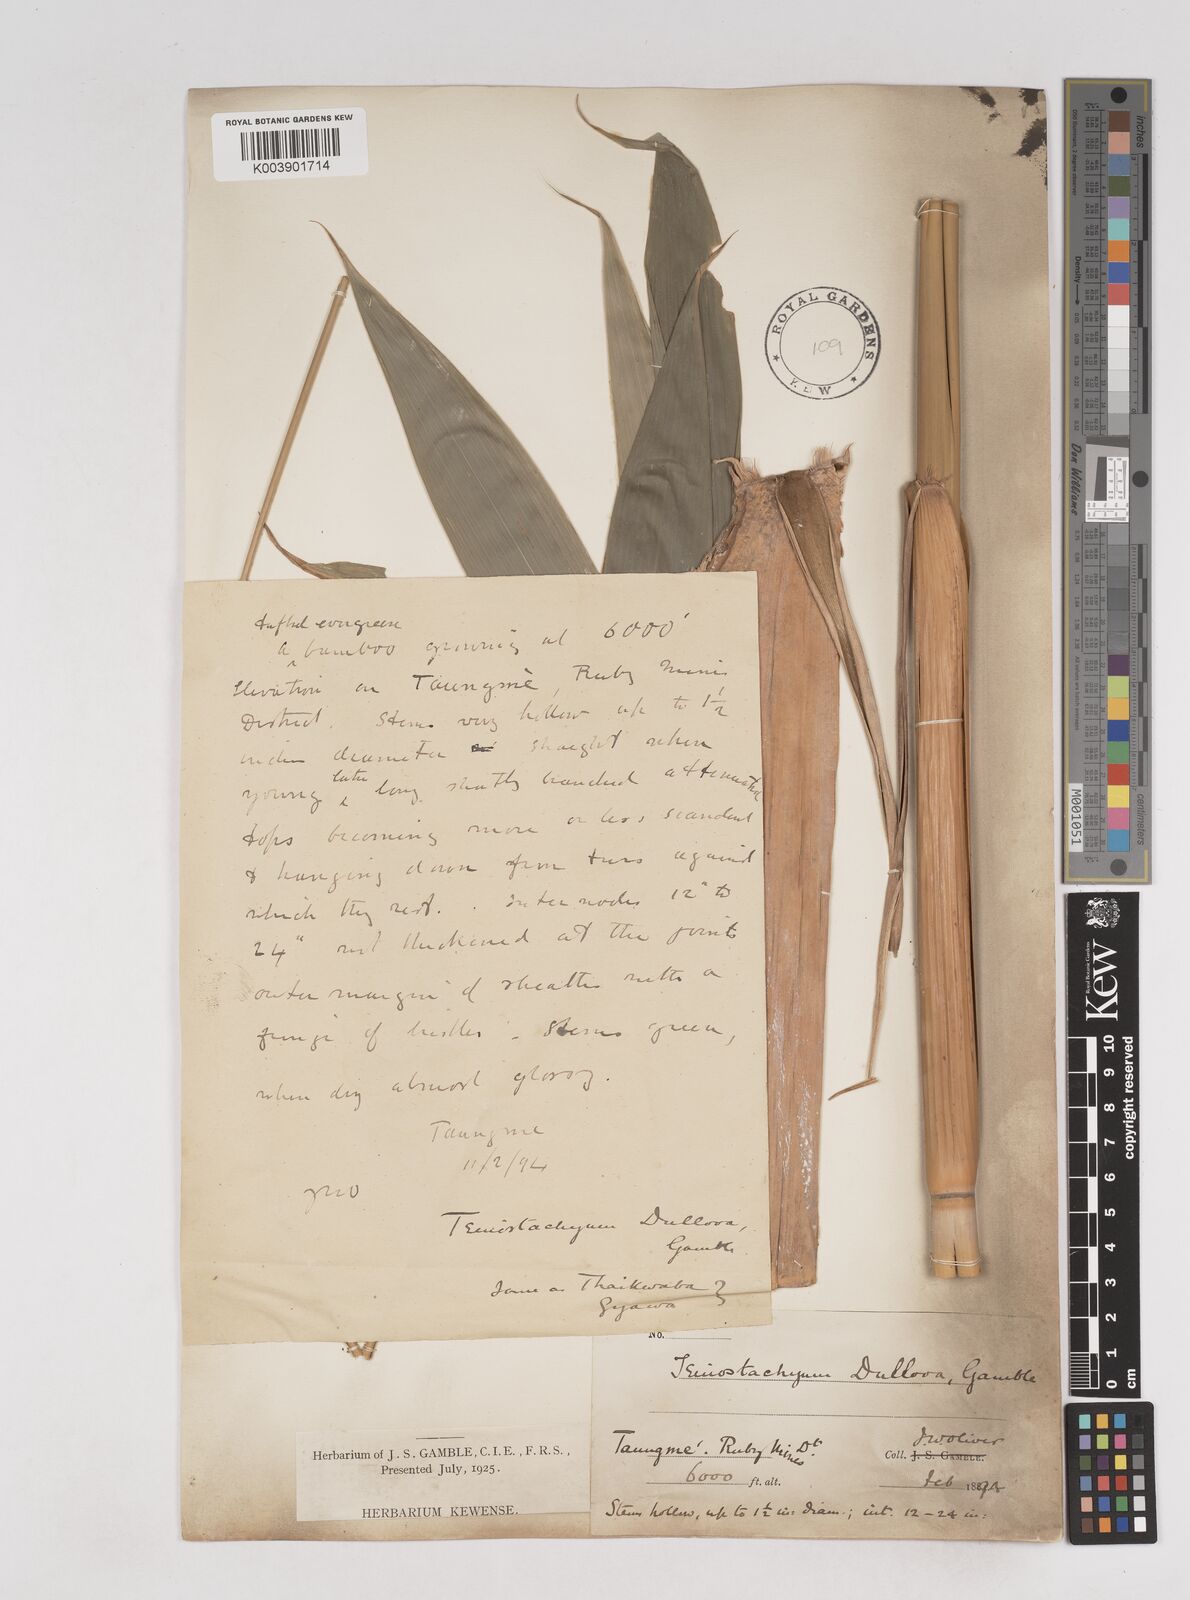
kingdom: Plantae
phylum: Tracheophyta
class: Liliopsida
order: Poales
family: Poaceae
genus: Schizostachyum
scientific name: Schizostachyum dullooa
